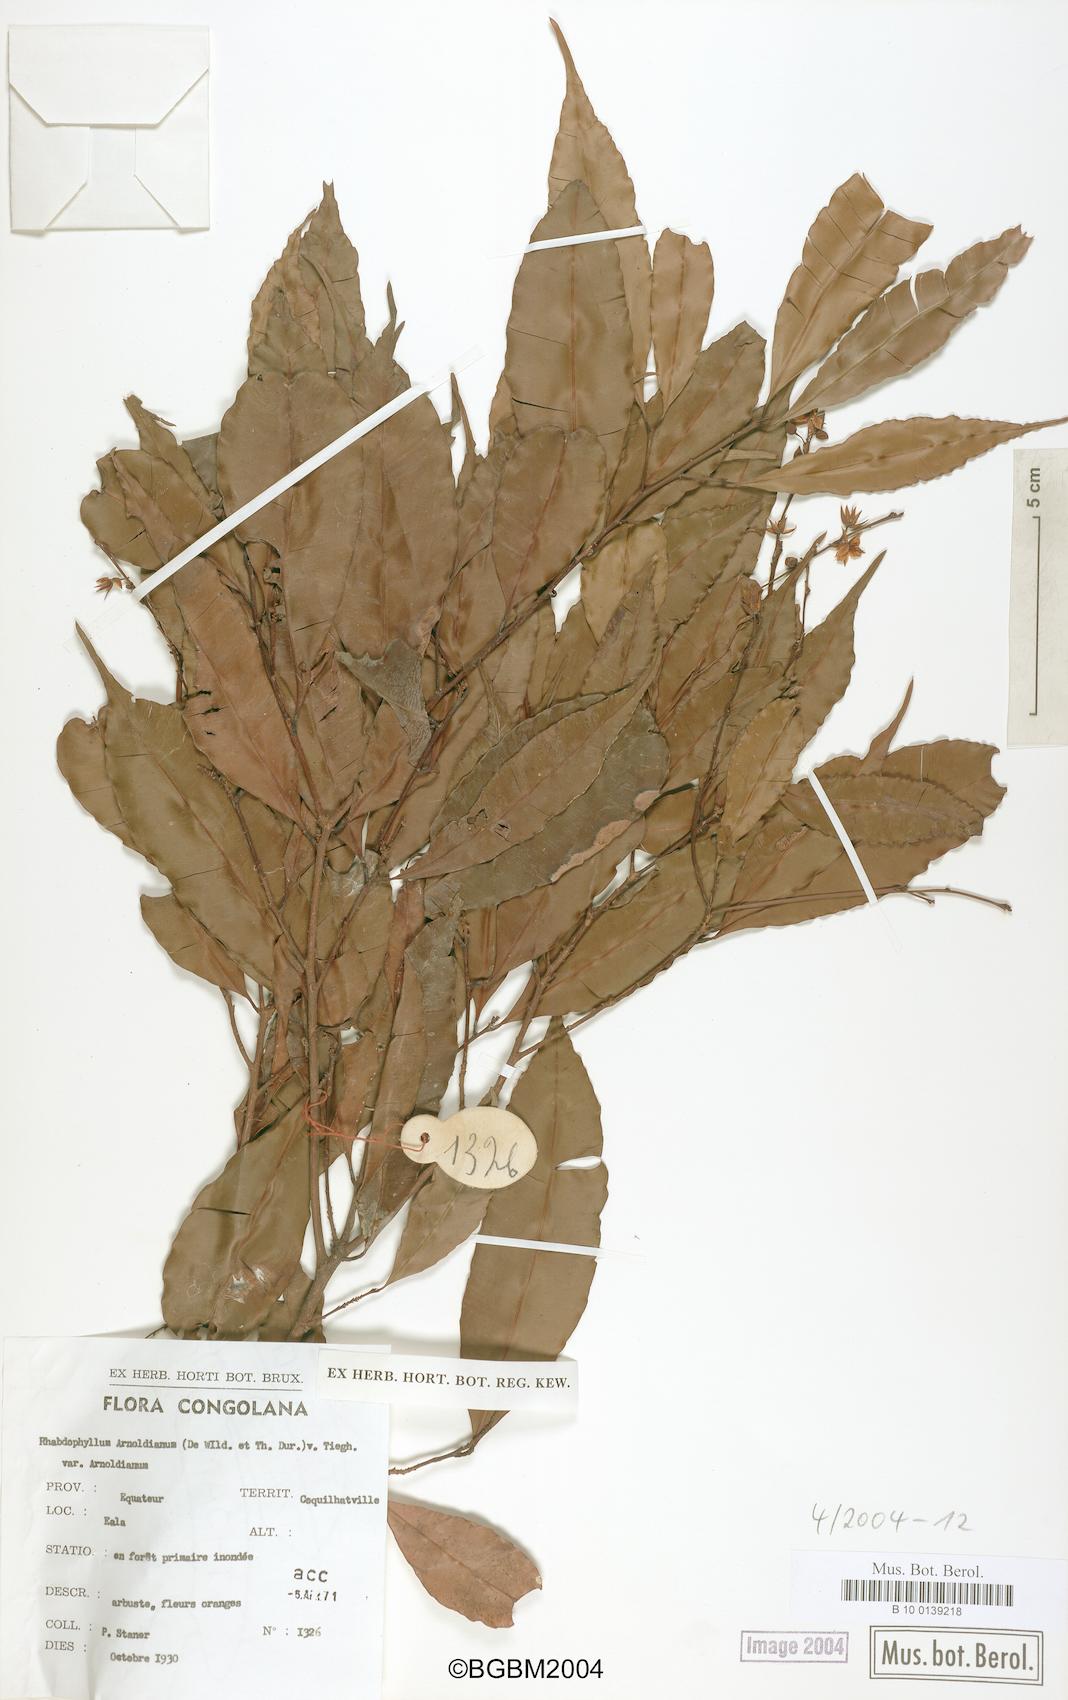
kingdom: Plantae
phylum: Tracheophyta
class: Magnoliopsida
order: Malpighiales
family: Ochnaceae
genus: Rhabdophyllum
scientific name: Rhabdophyllum arnoldianum
